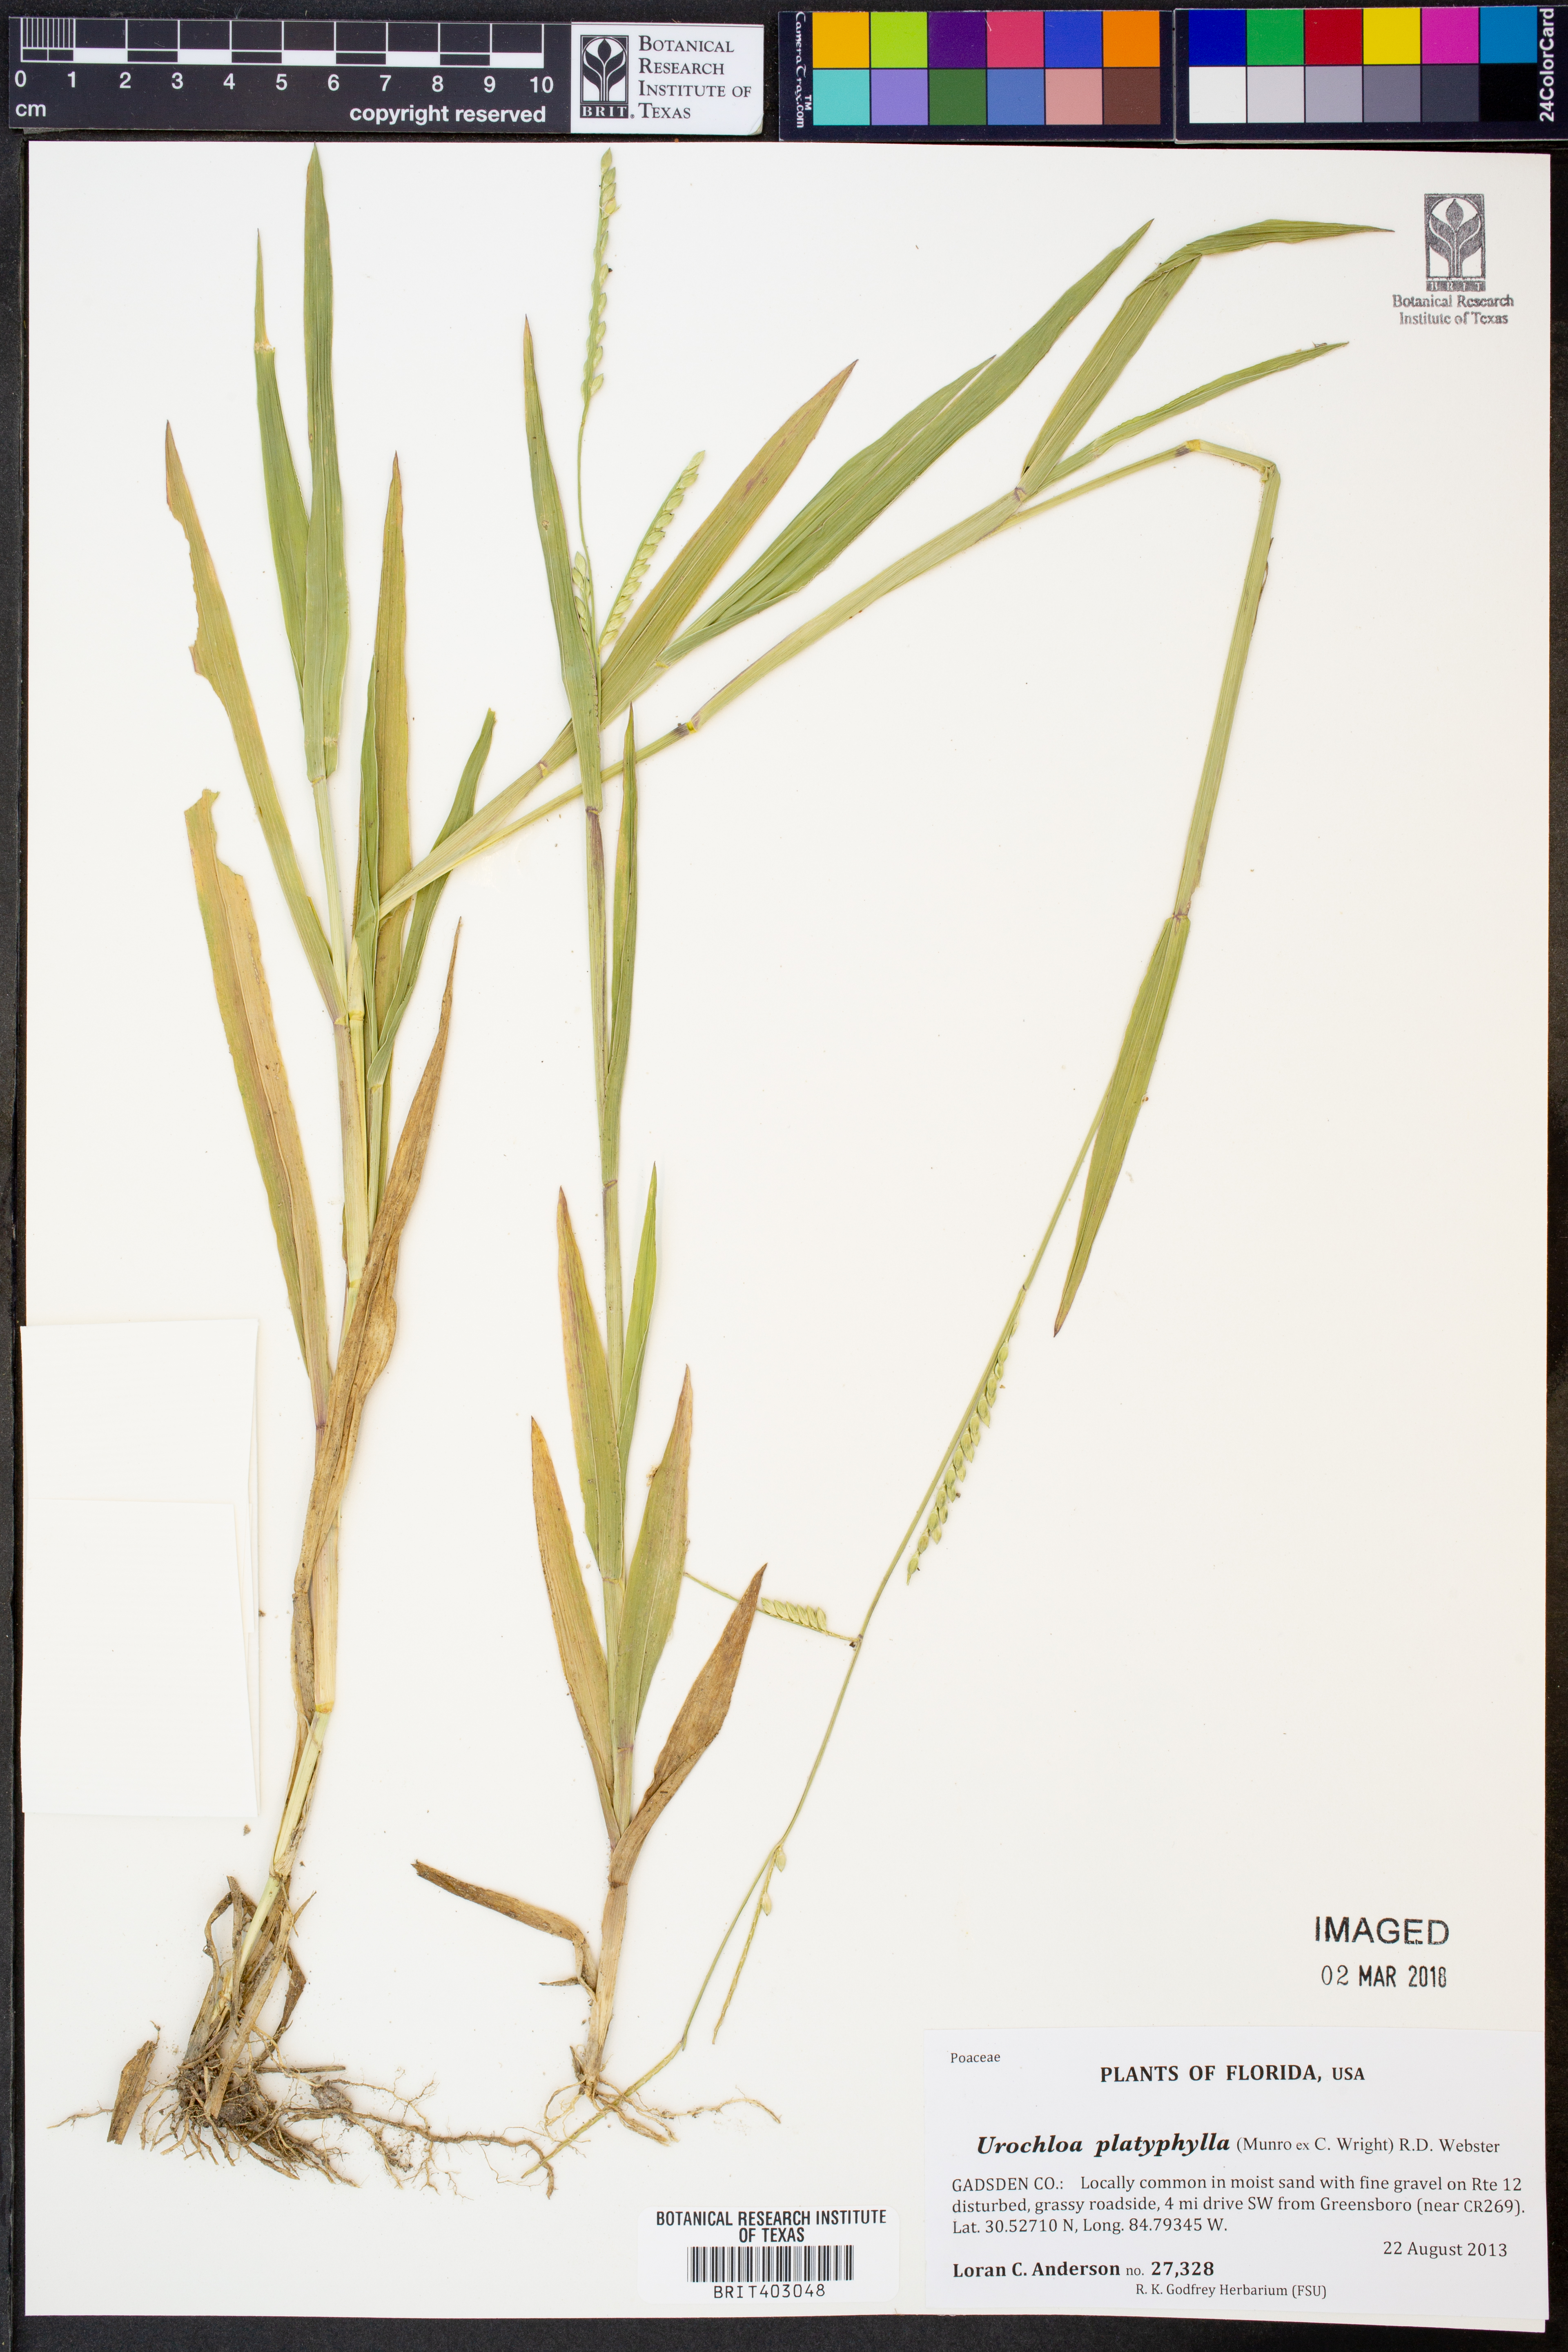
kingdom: Plantae
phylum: Tracheophyta
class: Liliopsida
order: Poales
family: Poaceae
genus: Urochloa
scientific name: Urochloa platyphylla
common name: White para grass
